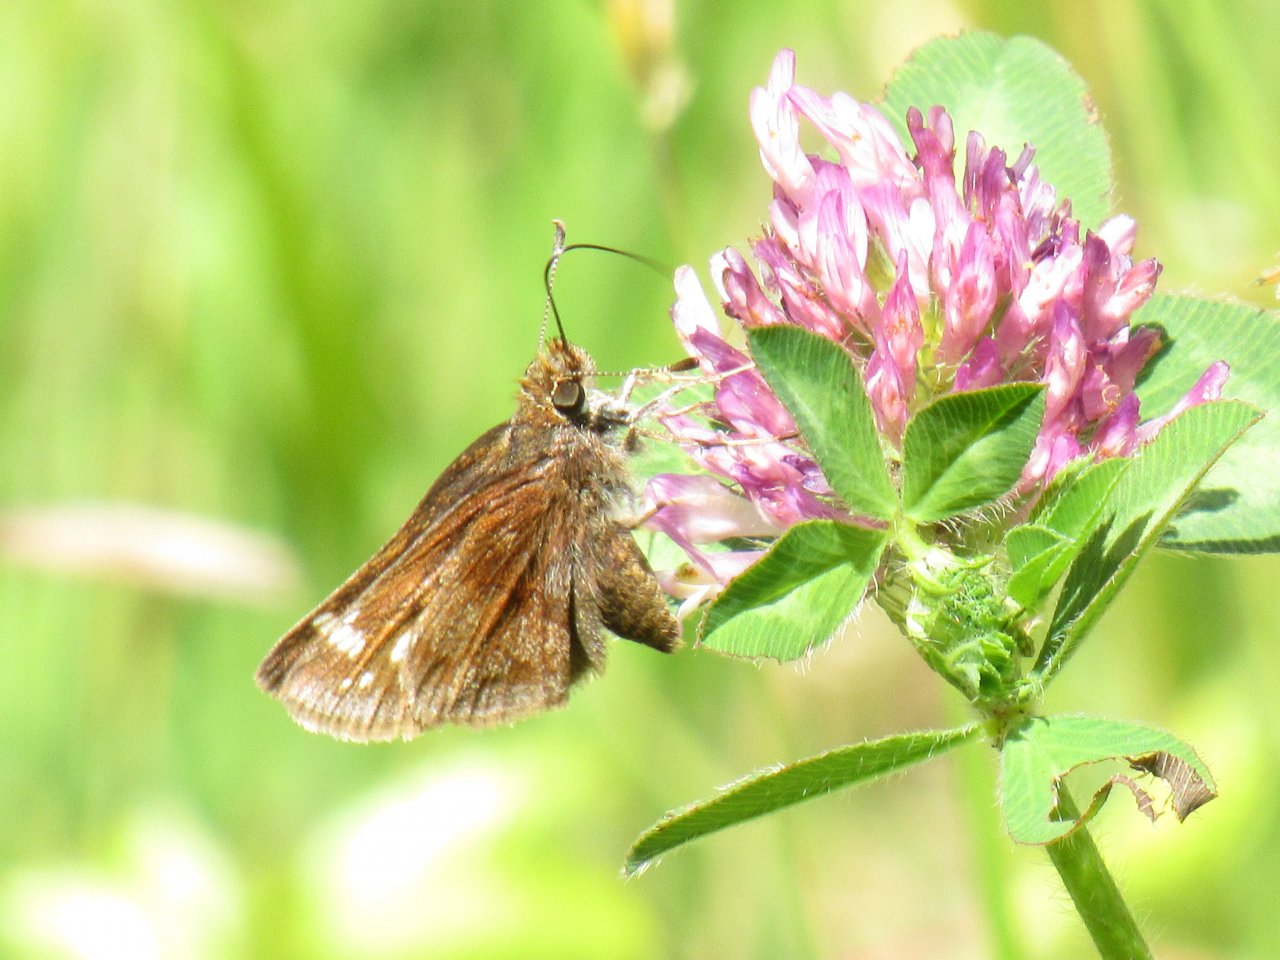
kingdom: Animalia
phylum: Arthropoda
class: Insecta
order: Lepidoptera
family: Hesperiidae
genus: Lon
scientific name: Lon hobomok
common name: Hobomok Skipper
